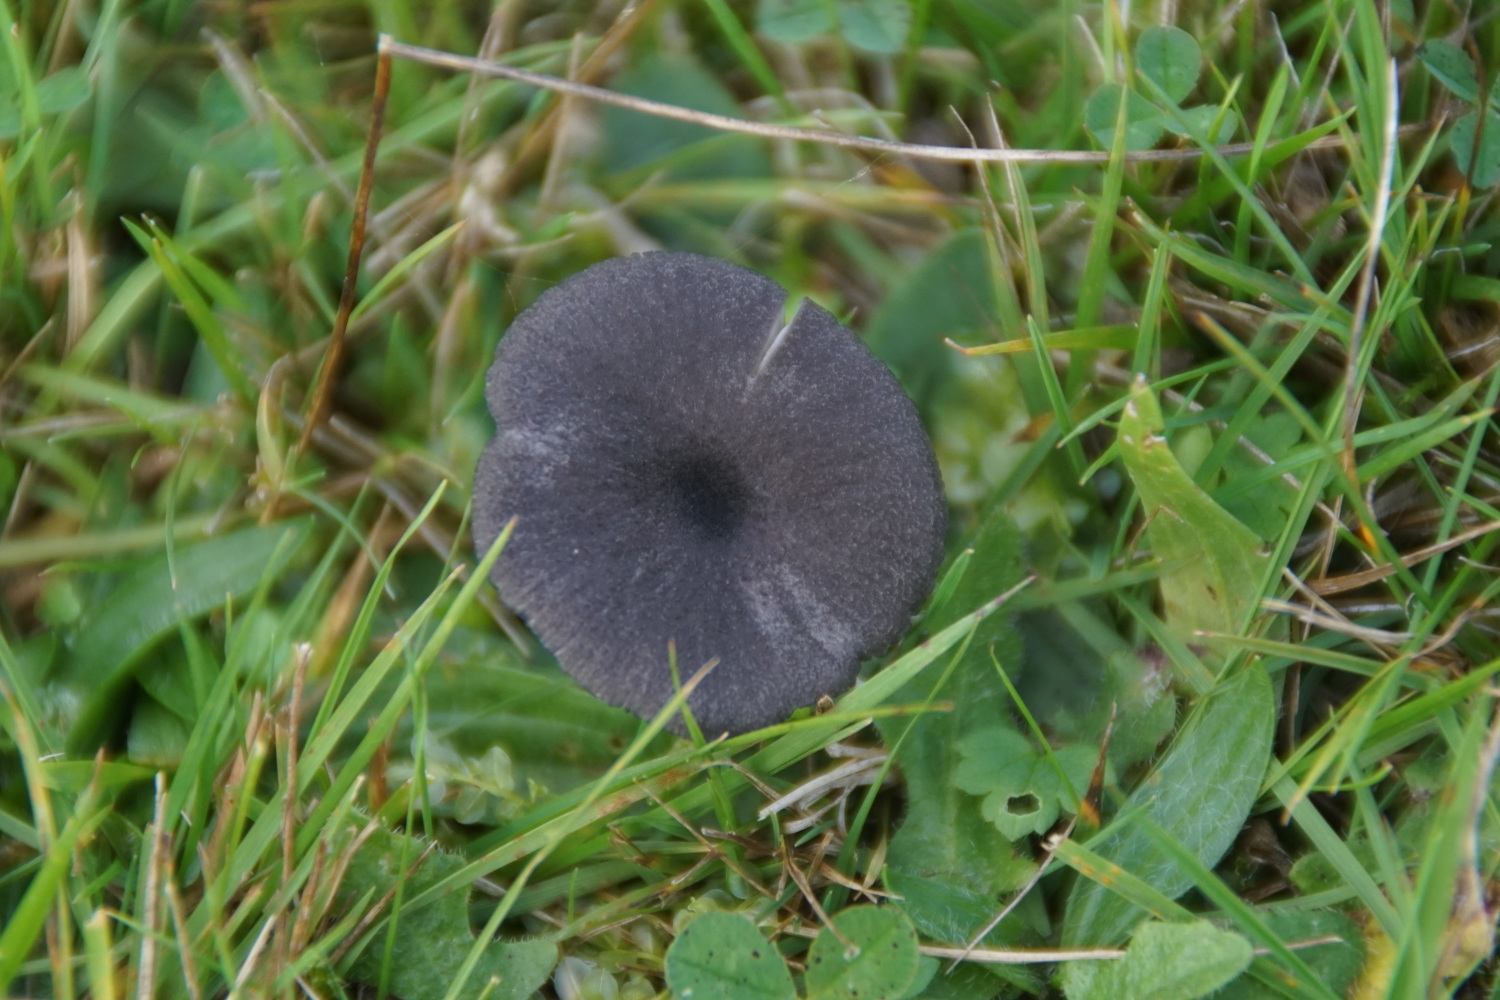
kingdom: Fungi
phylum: Basidiomycota
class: Agaricomycetes
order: Agaricales
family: Entolomataceae
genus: Entoloma
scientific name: Entoloma
